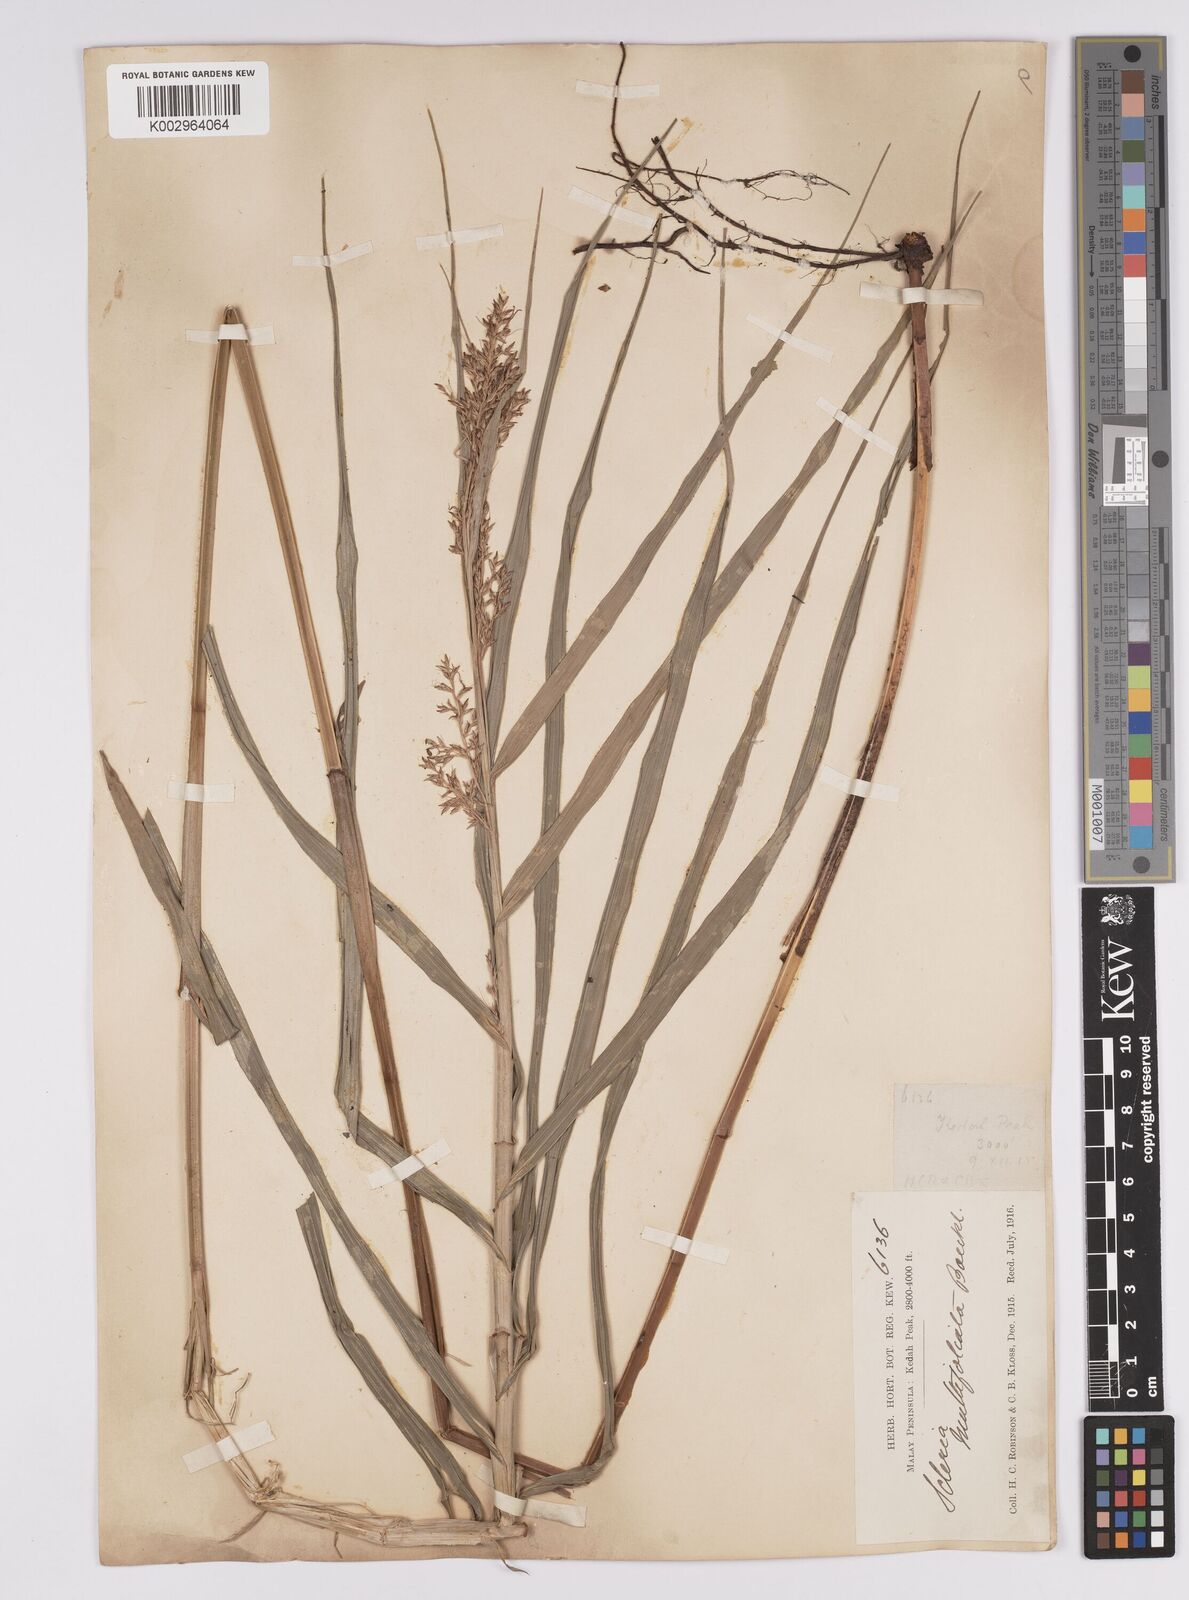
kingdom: Plantae
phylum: Tracheophyta
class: Liliopsida
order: Poales
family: Cyperaceae
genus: Scleria
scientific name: Scleria purpurascens
